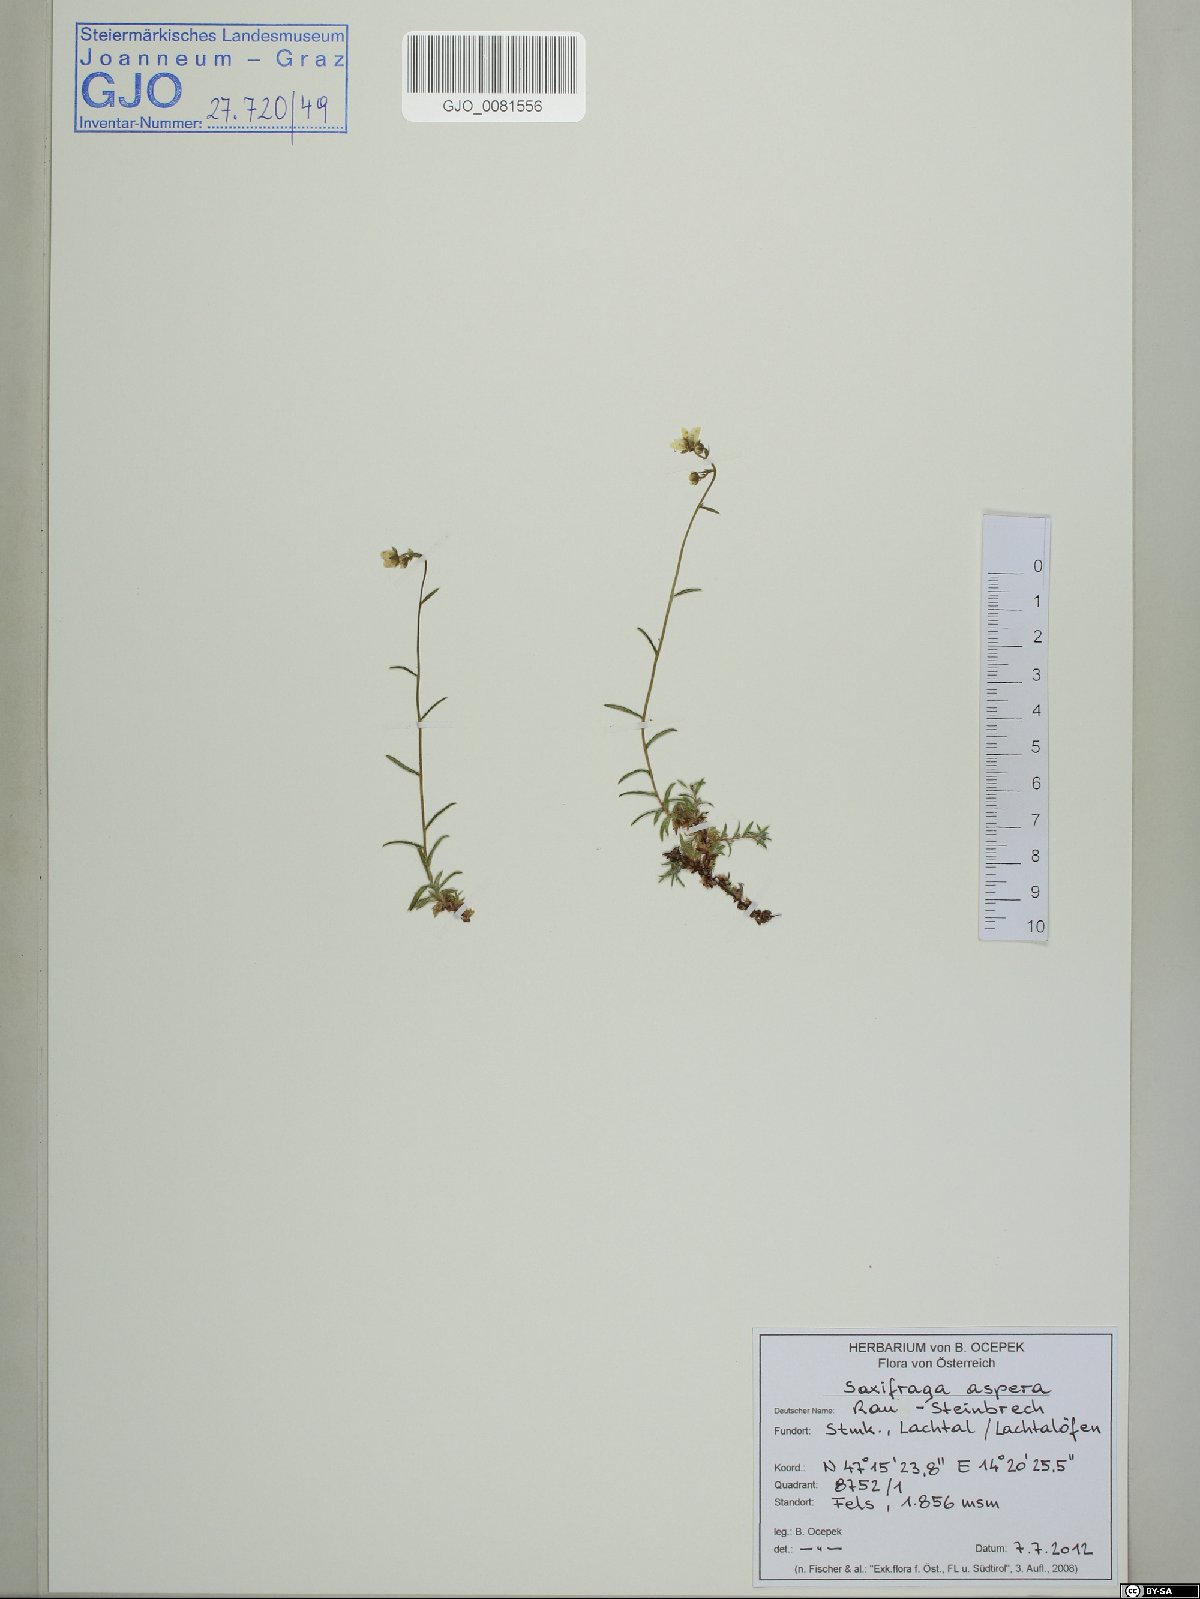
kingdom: Plantae
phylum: Tracheophyta
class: Magnoliopsida
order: Saxifragales
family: Saxifragaceae
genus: Saxifraga
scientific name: Saxifraga aspera
